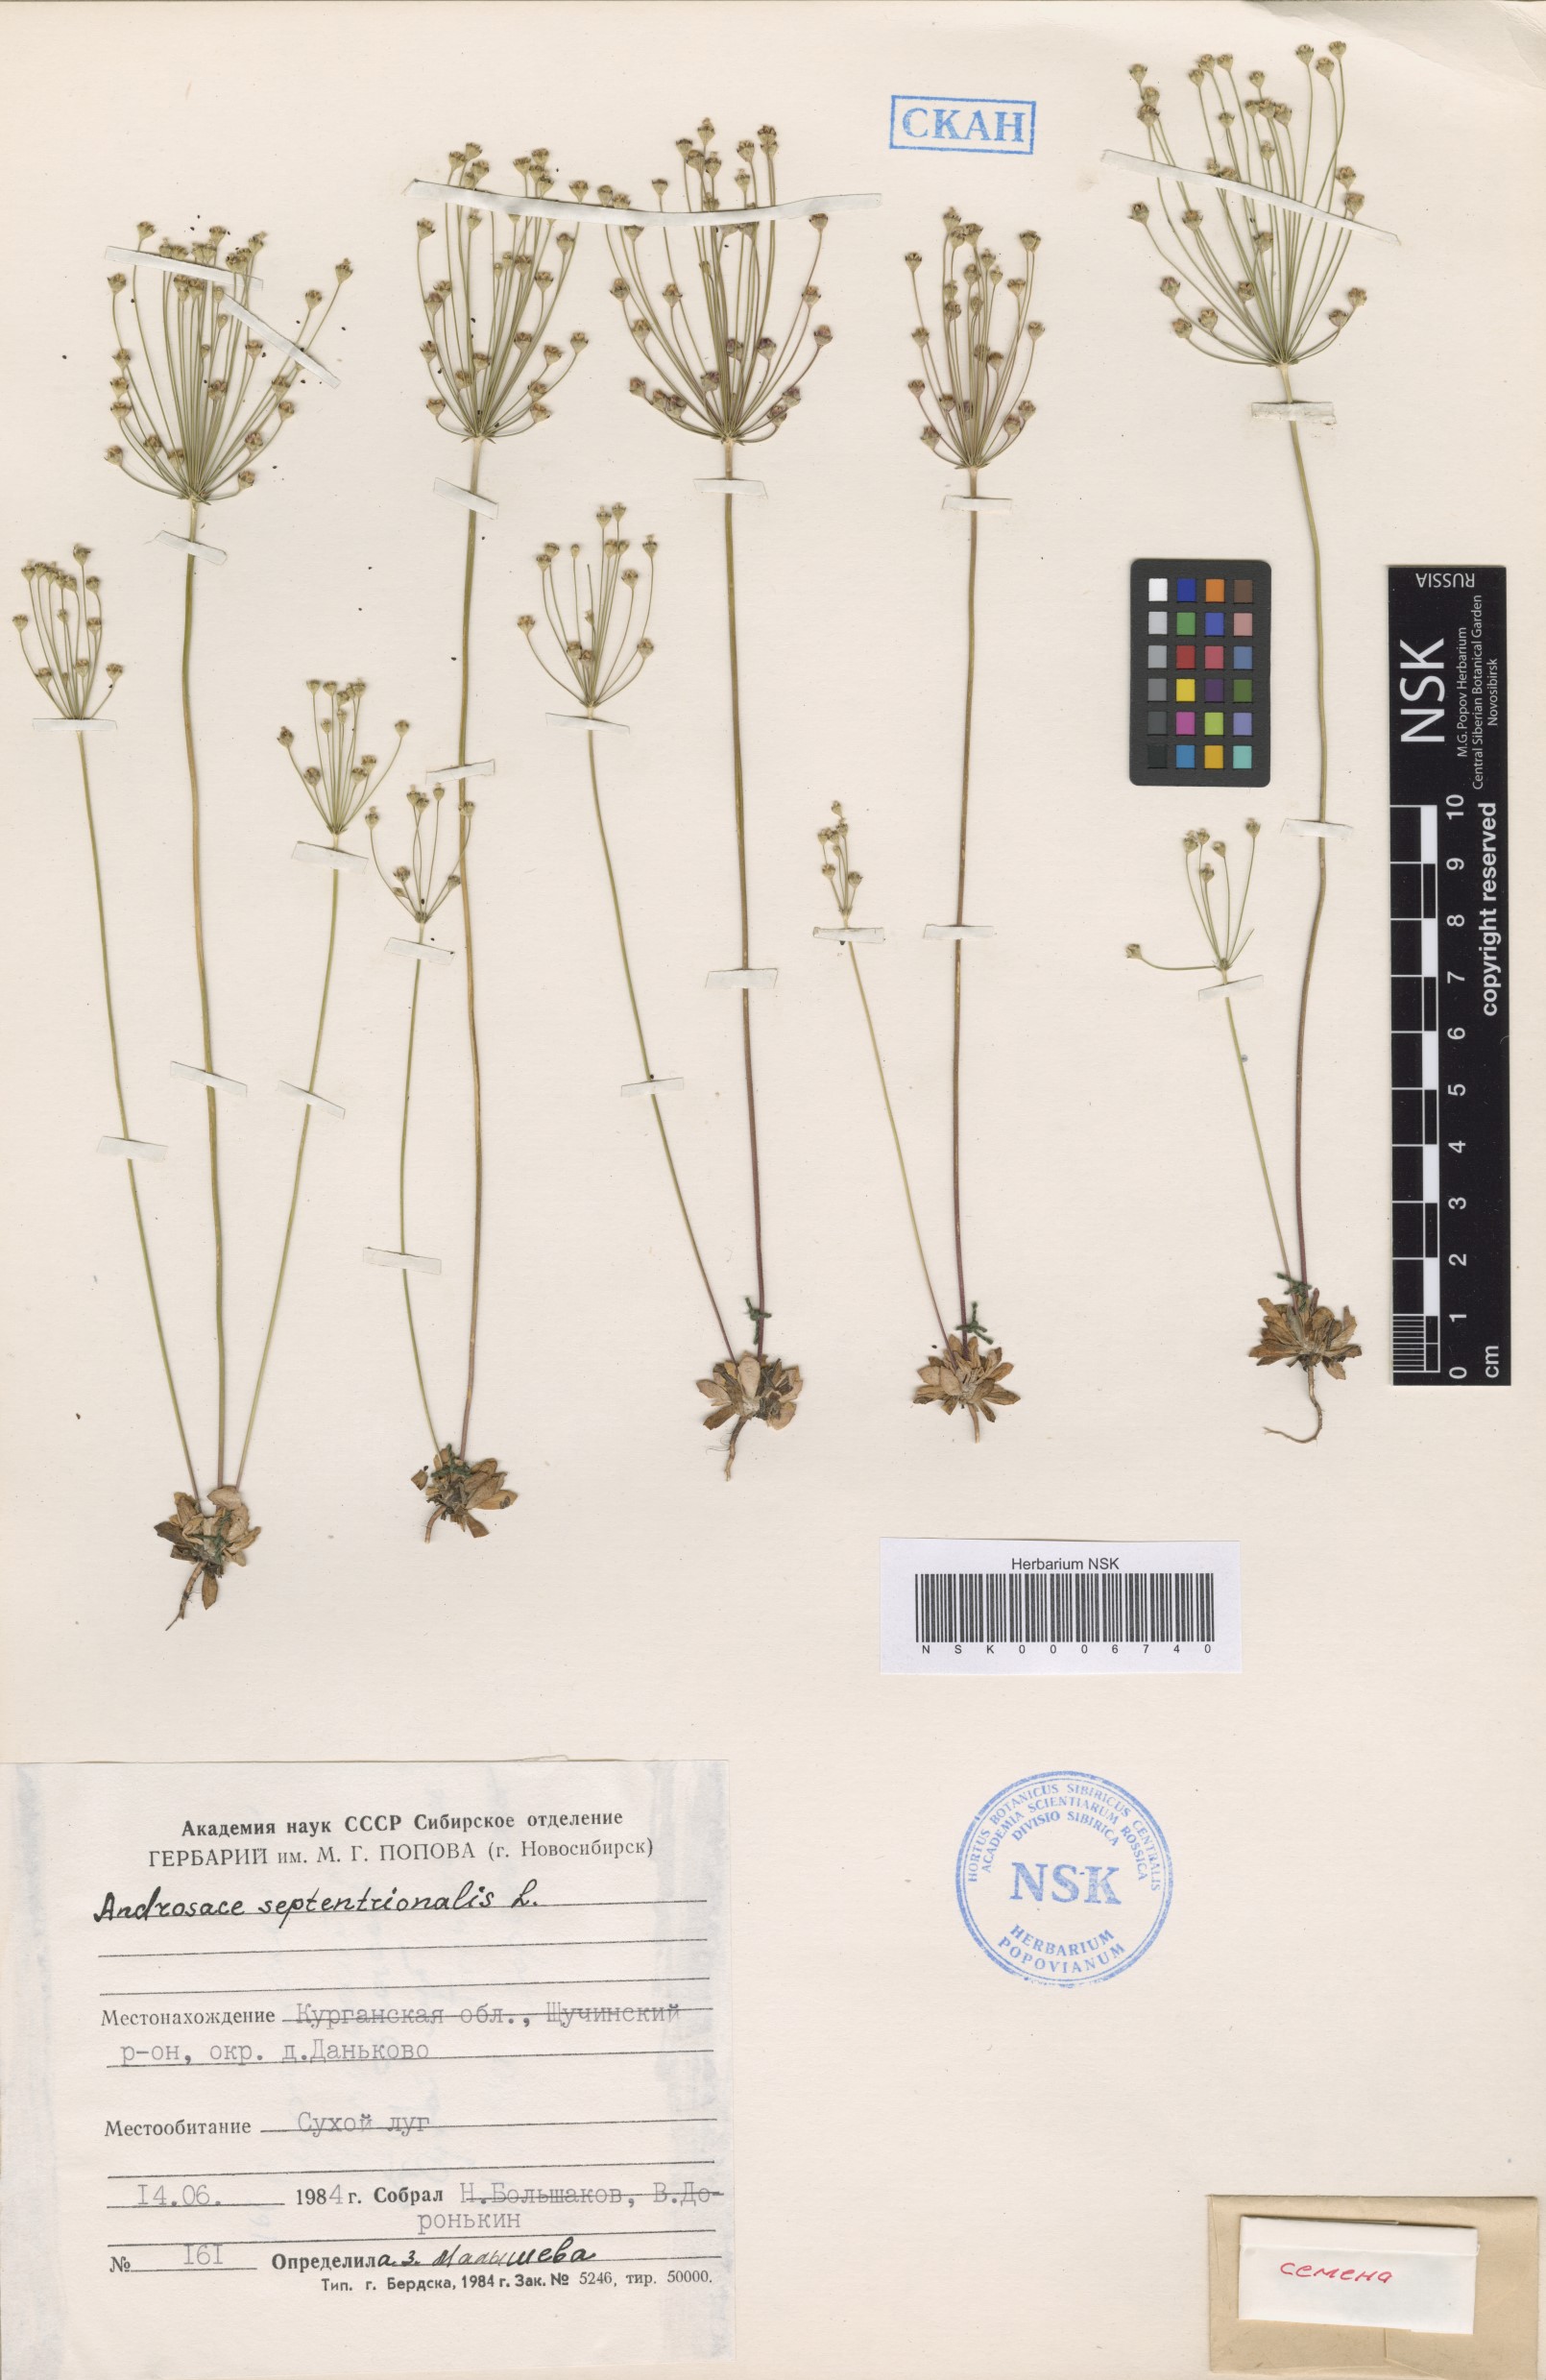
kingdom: Plantae
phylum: Tracheophyta
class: Magnoliopsida
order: Ericales
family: Primulaceae
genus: Androsace
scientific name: Androsace septentrionalis
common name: Hairy northern fairy-candelabra
